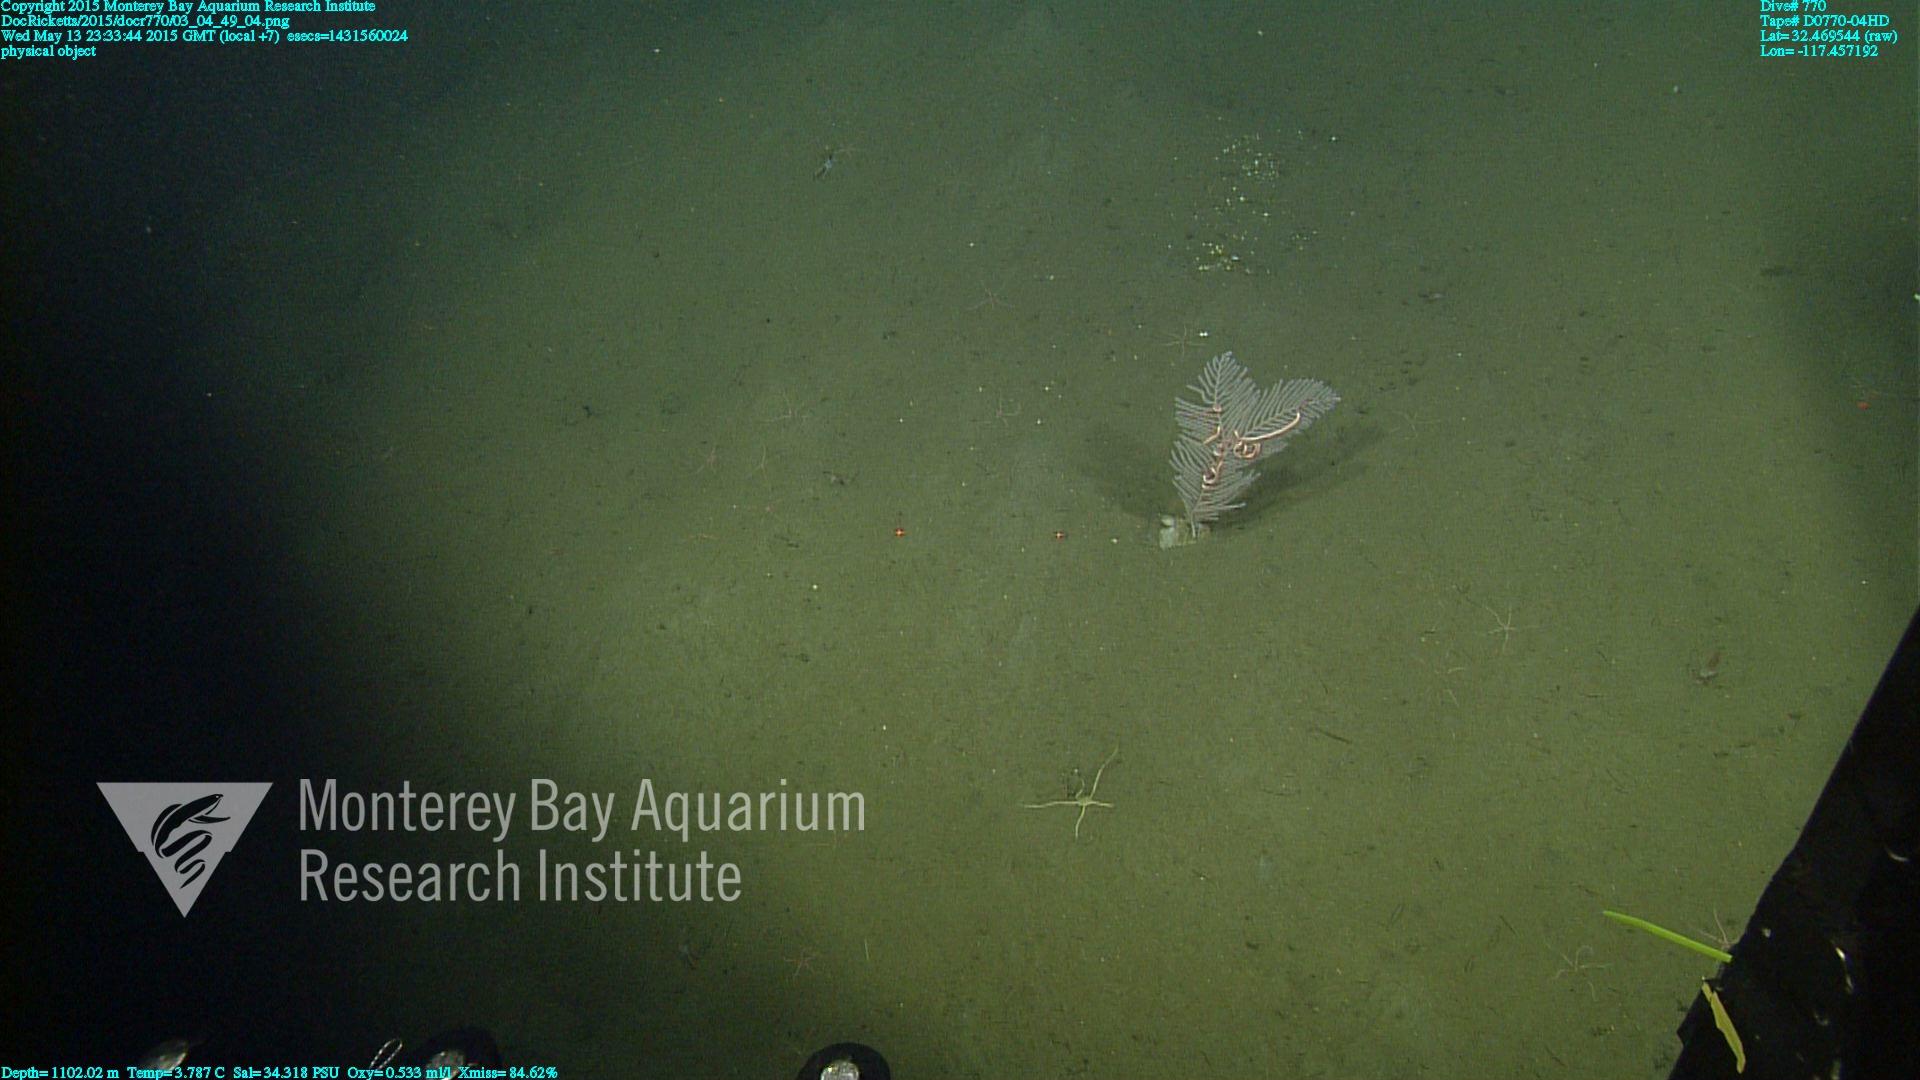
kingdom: Animalia
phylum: Cnidaria
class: Anthozoa
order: Scleralcyonacea
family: Primnoidae
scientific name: Primnoidae
